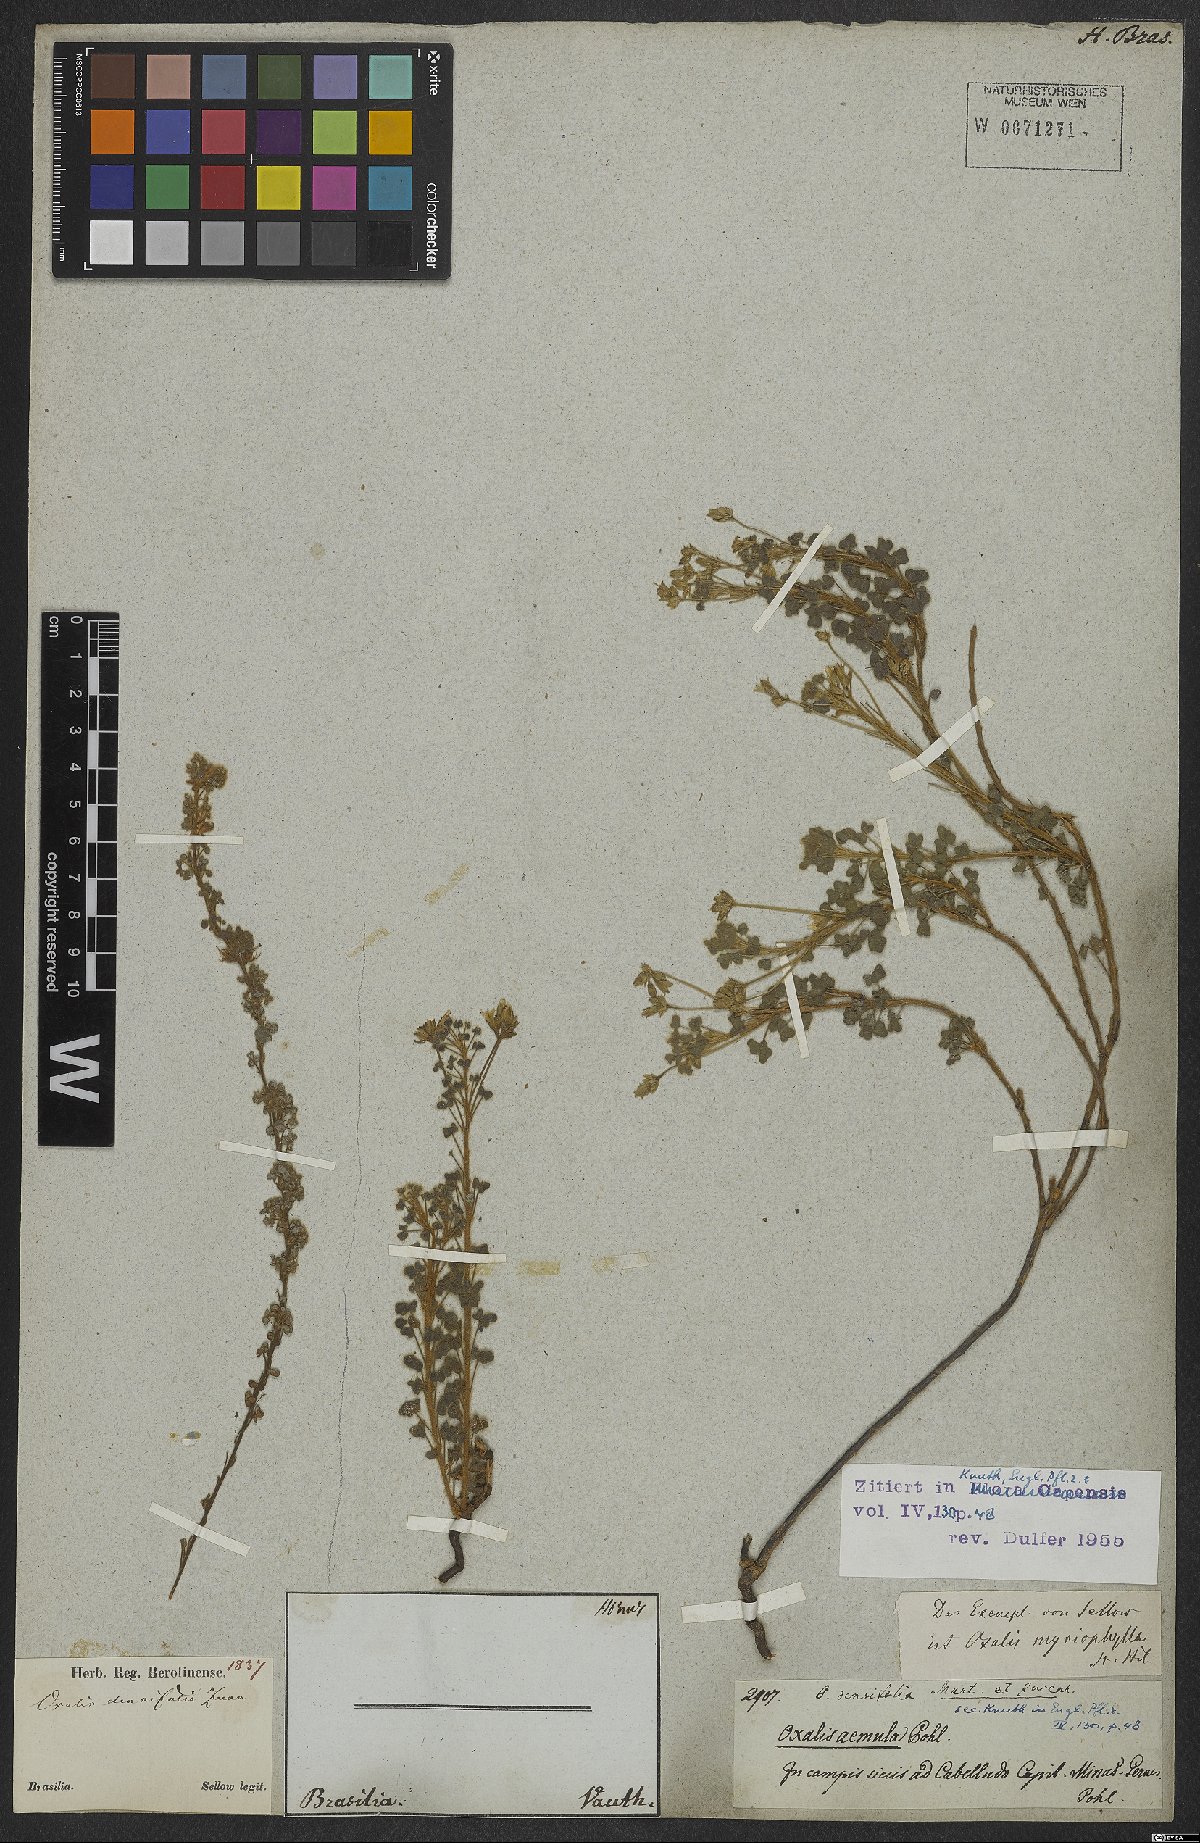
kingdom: Plantae
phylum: Tracheophyta
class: Magnoliopsida
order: Oxalidales
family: Oxalidaceae
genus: Oxalis
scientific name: Oxalis confertifolia
